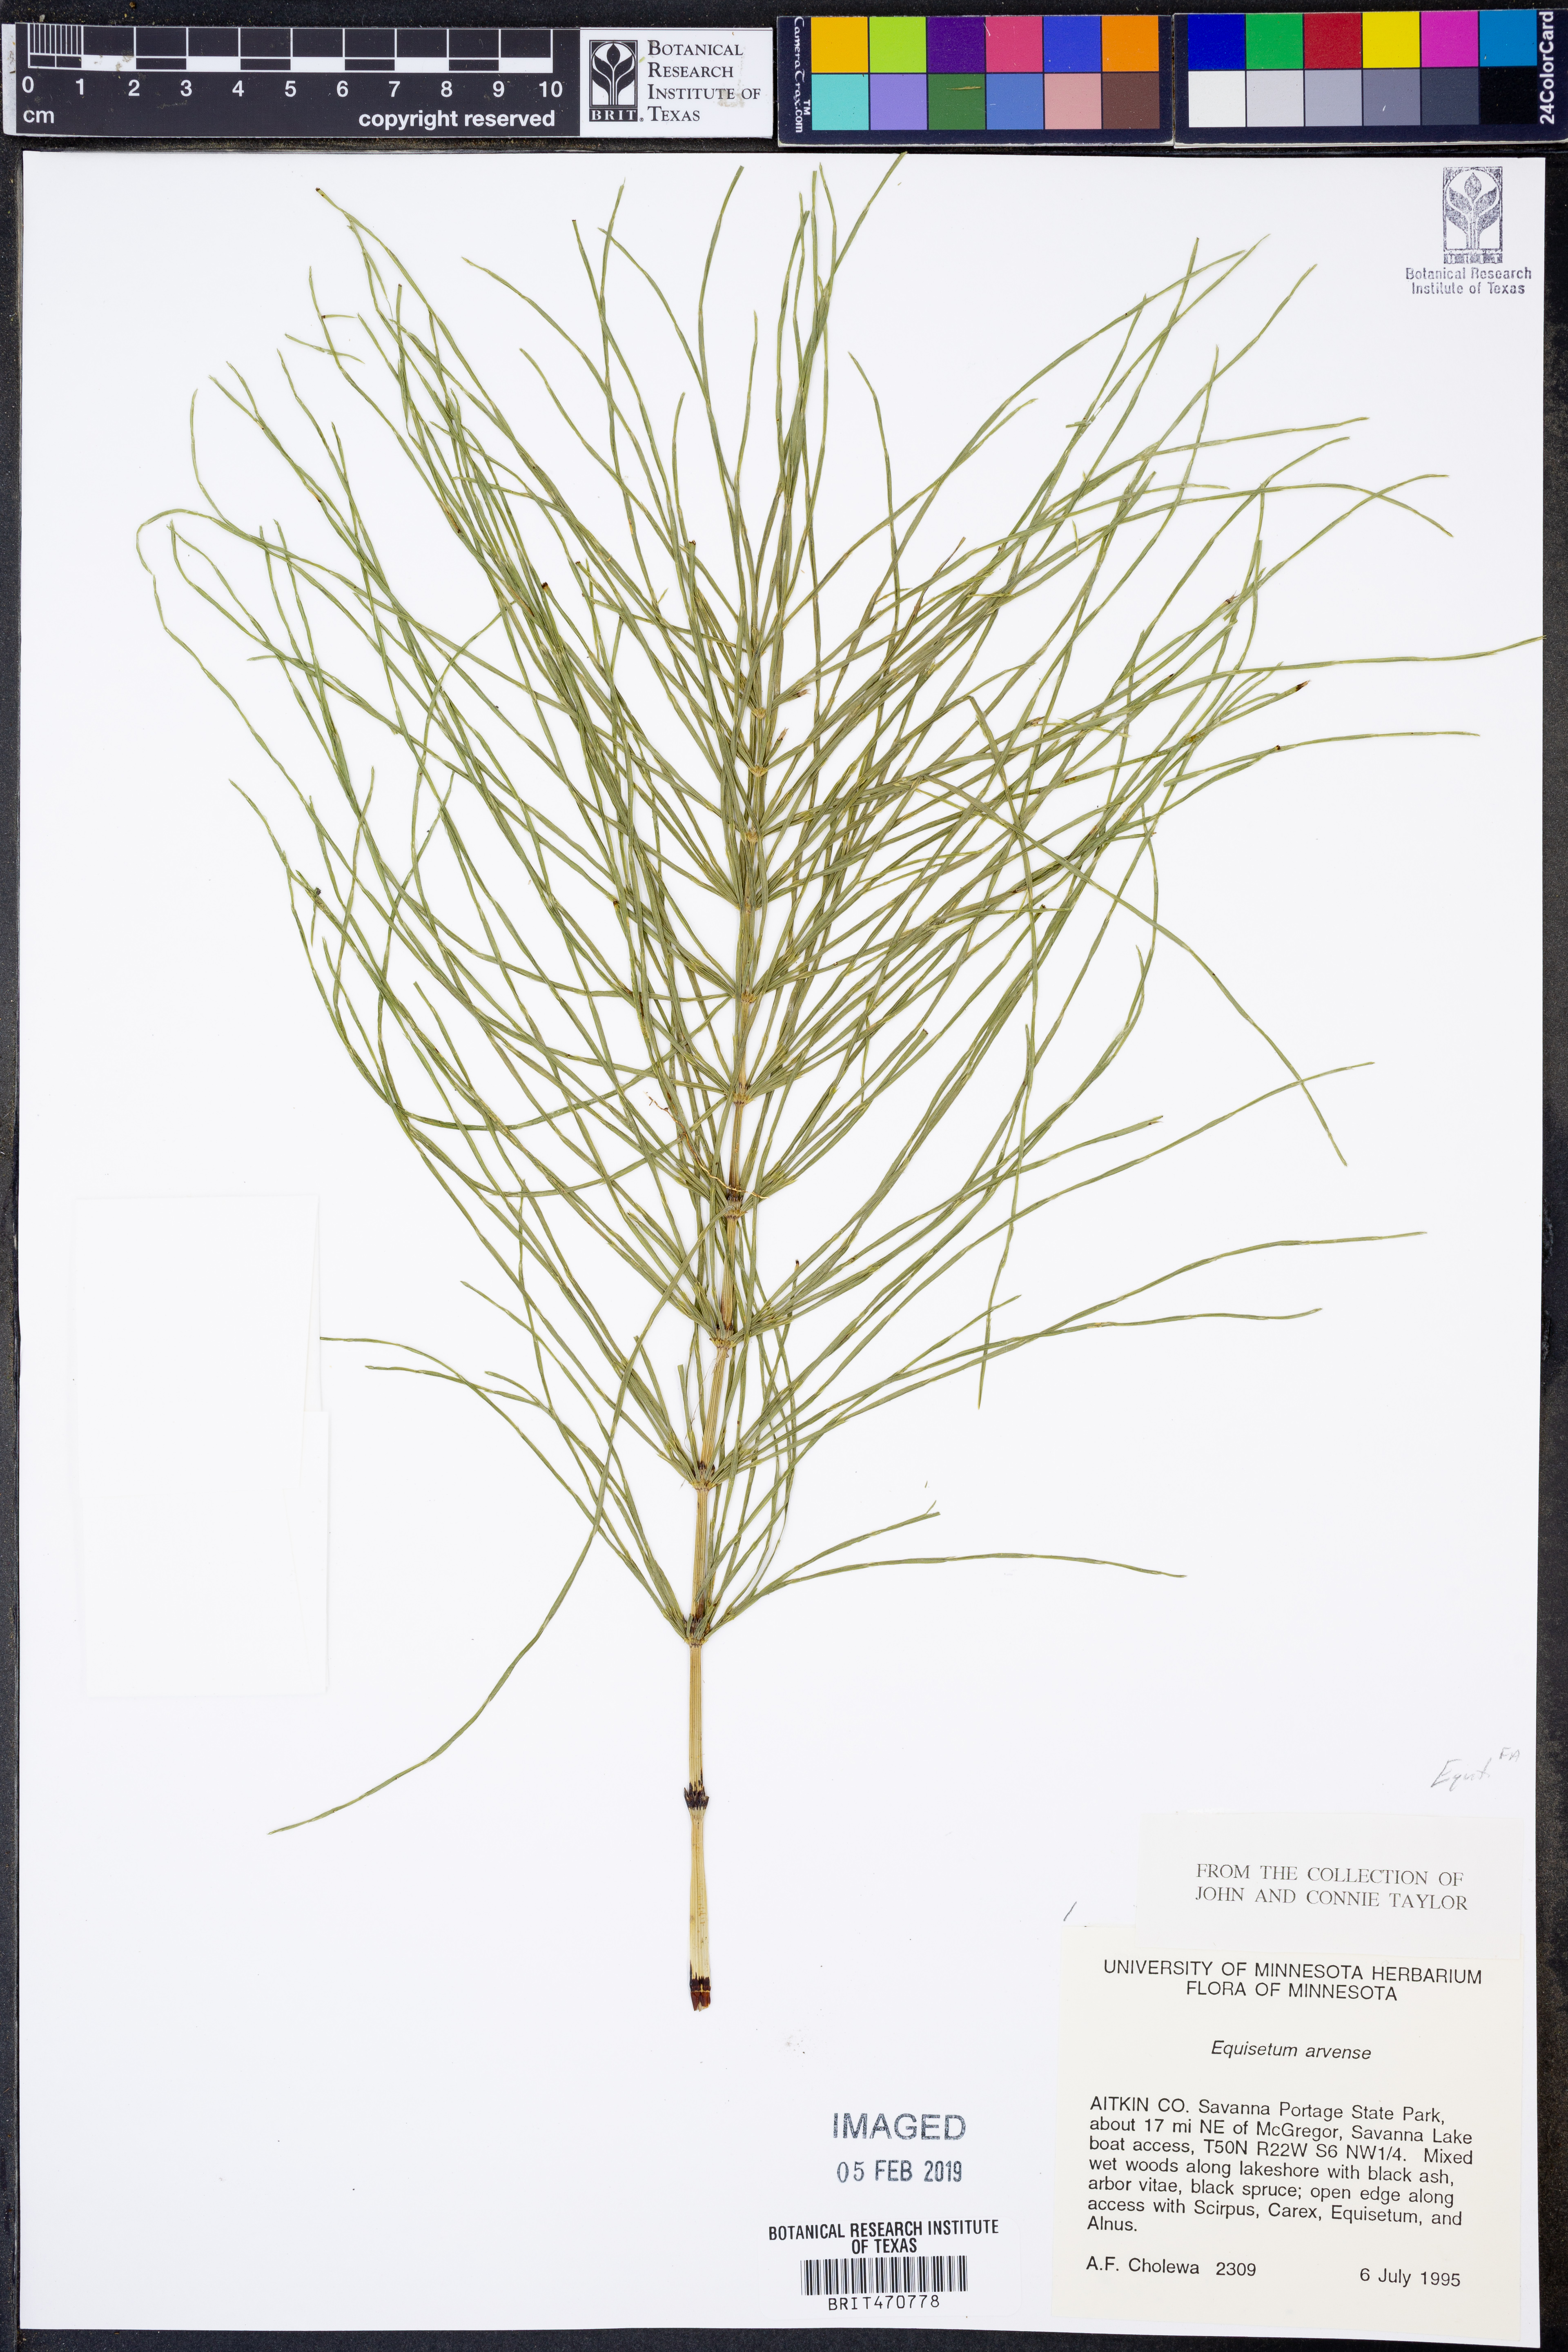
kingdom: Plantae
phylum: Tracheophyta
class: Polypodiopsida
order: Equisetales
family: Equisetaceae
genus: Equisetum
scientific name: Equisetum arvense
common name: Field horsetail
